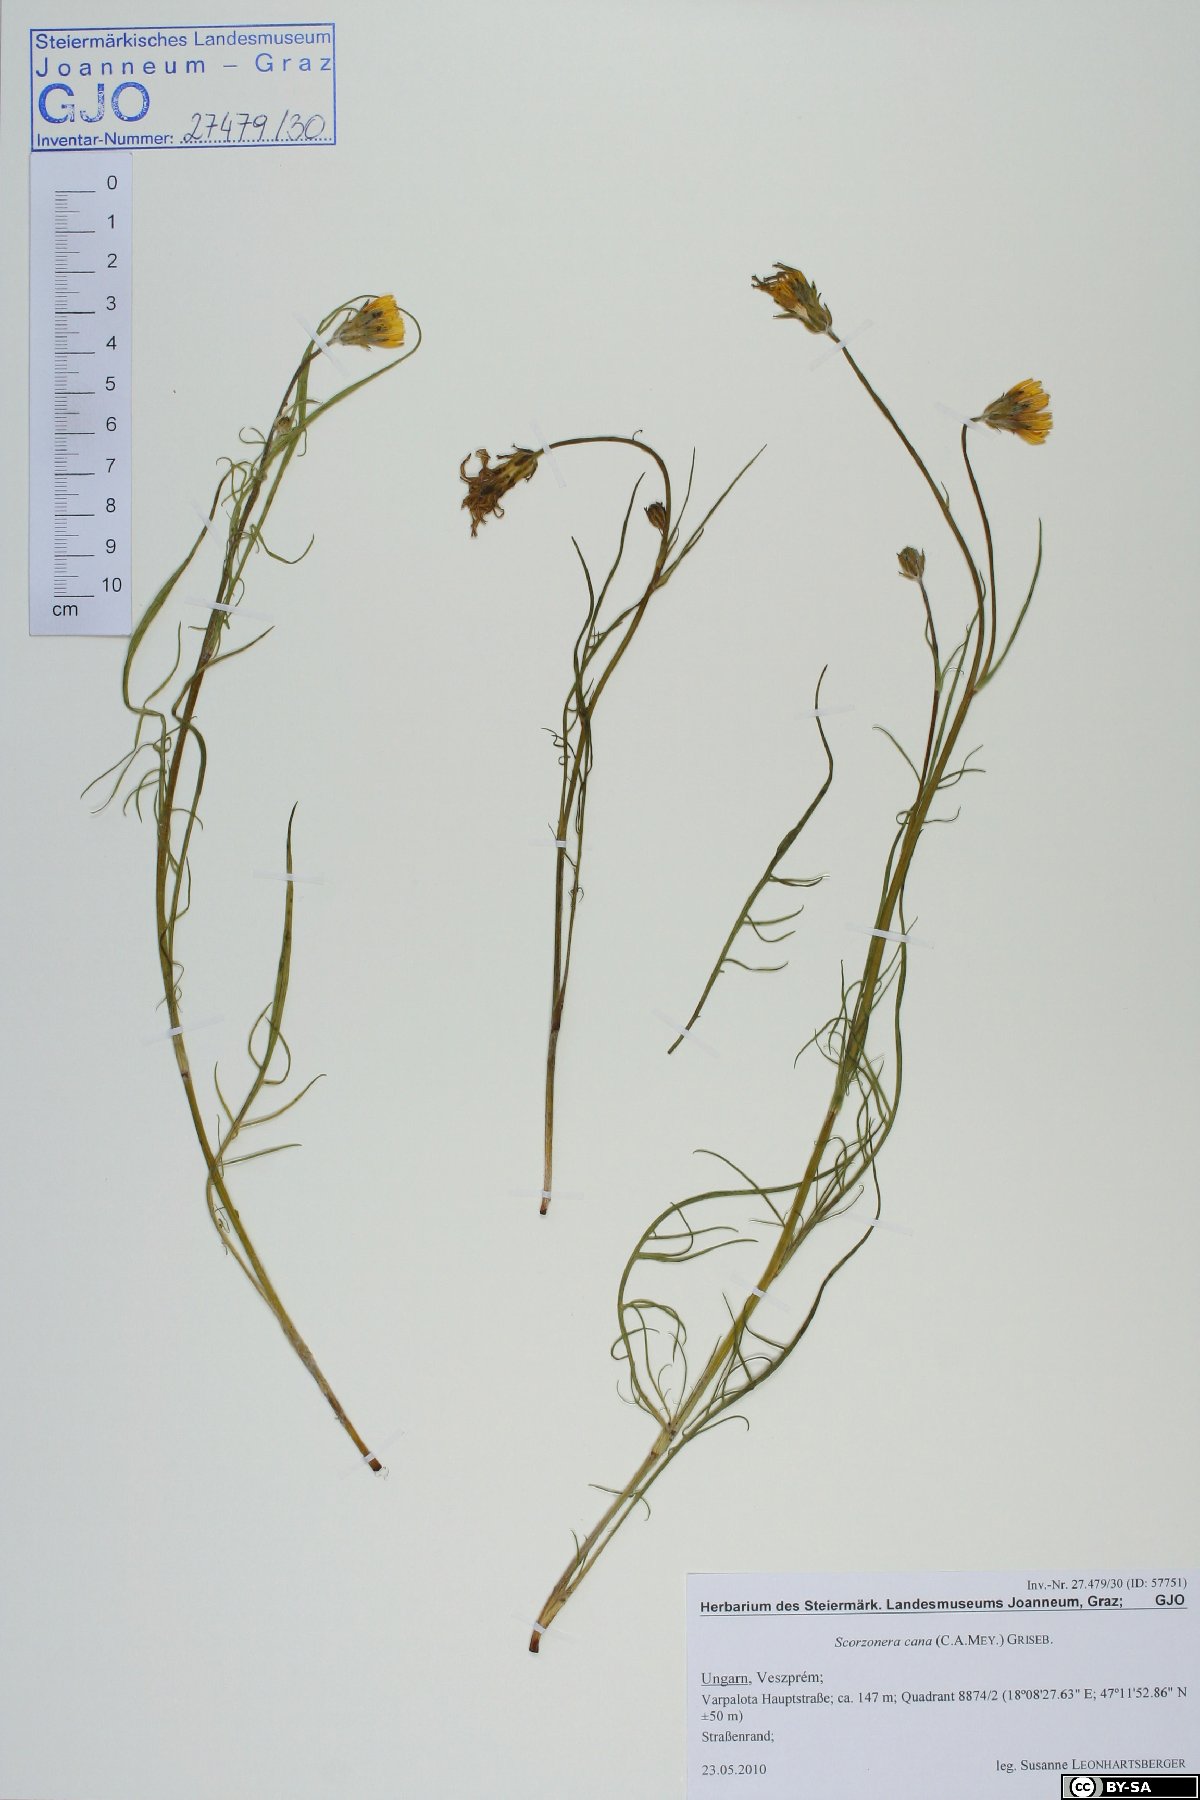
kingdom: Plantae
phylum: Tracheophyta
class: Magnoliopsida
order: Asterales
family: Asteraceae
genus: Scorzonera
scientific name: Scorzonera cana
